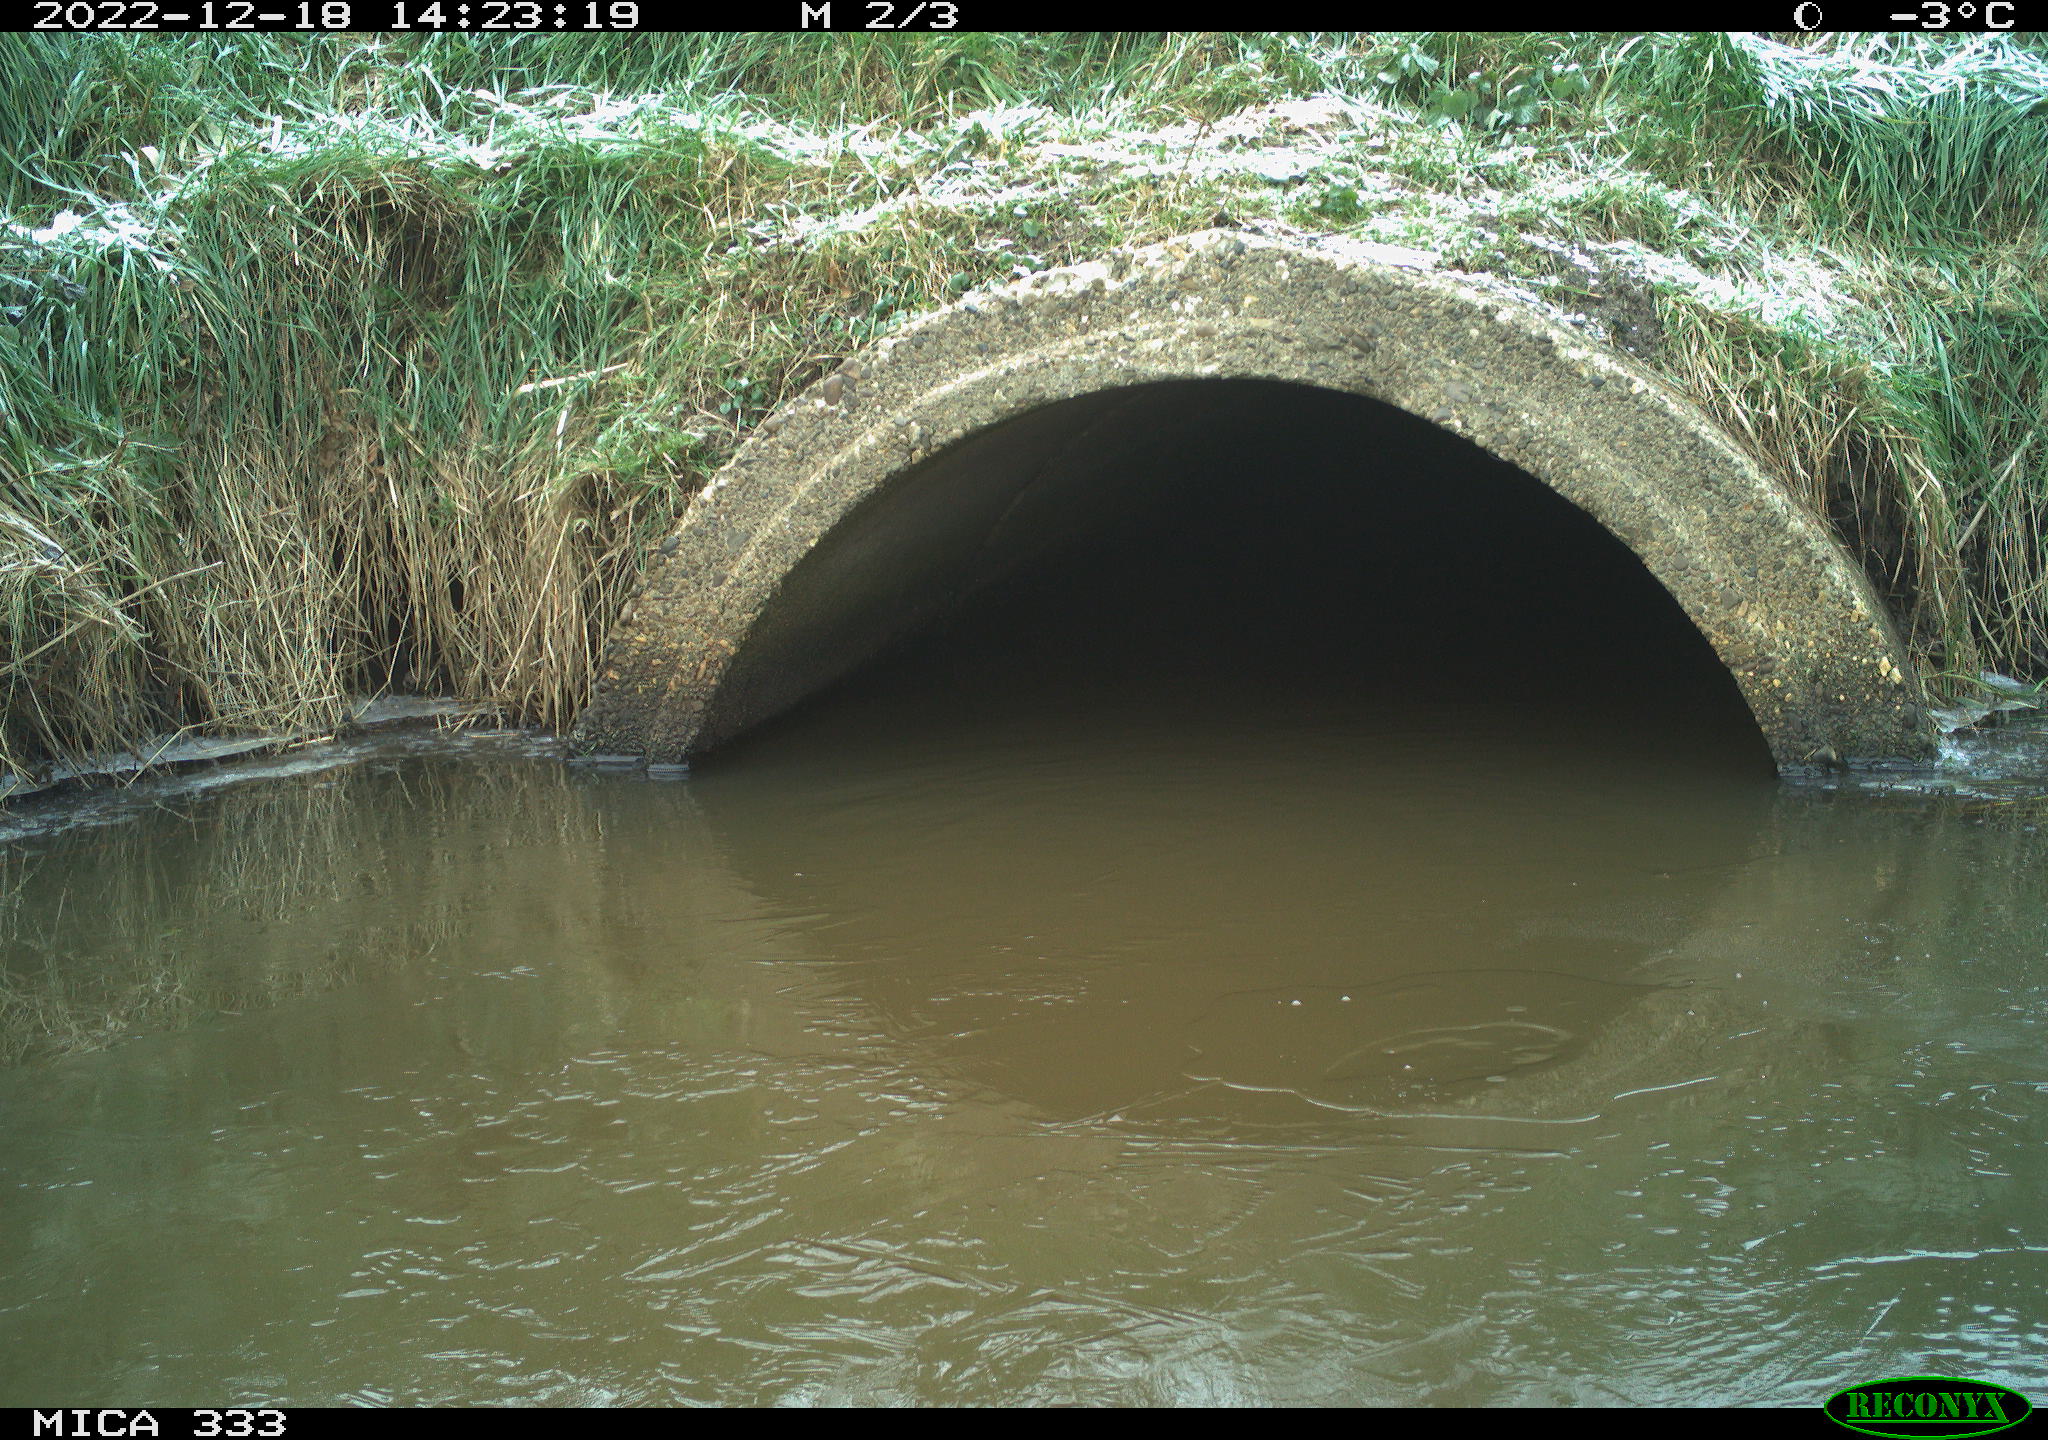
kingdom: Animalia
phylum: Chordata
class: Aves
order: Anseriformes
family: Anatidae
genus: Anas
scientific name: Anas
